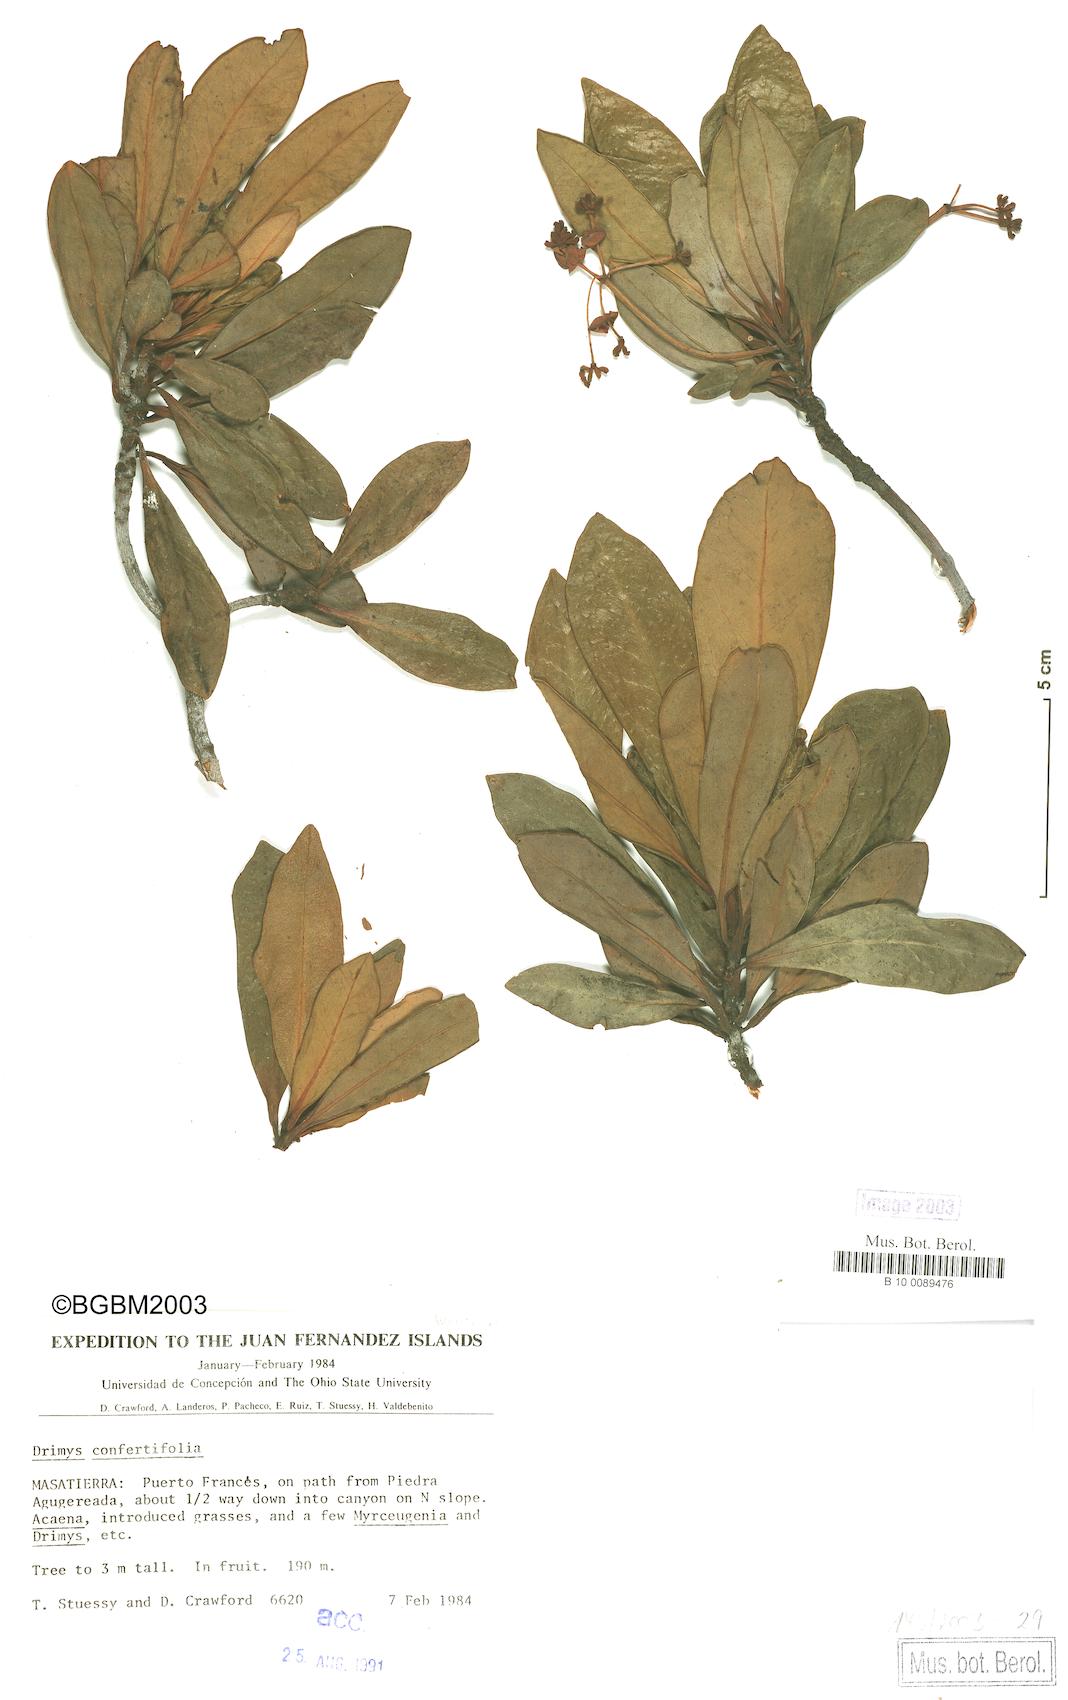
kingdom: Plantae
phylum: Tracheophyta
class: Magnoliopsida
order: Canellales
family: Winteraceae
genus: Drimys
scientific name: Drimys confertiflora
